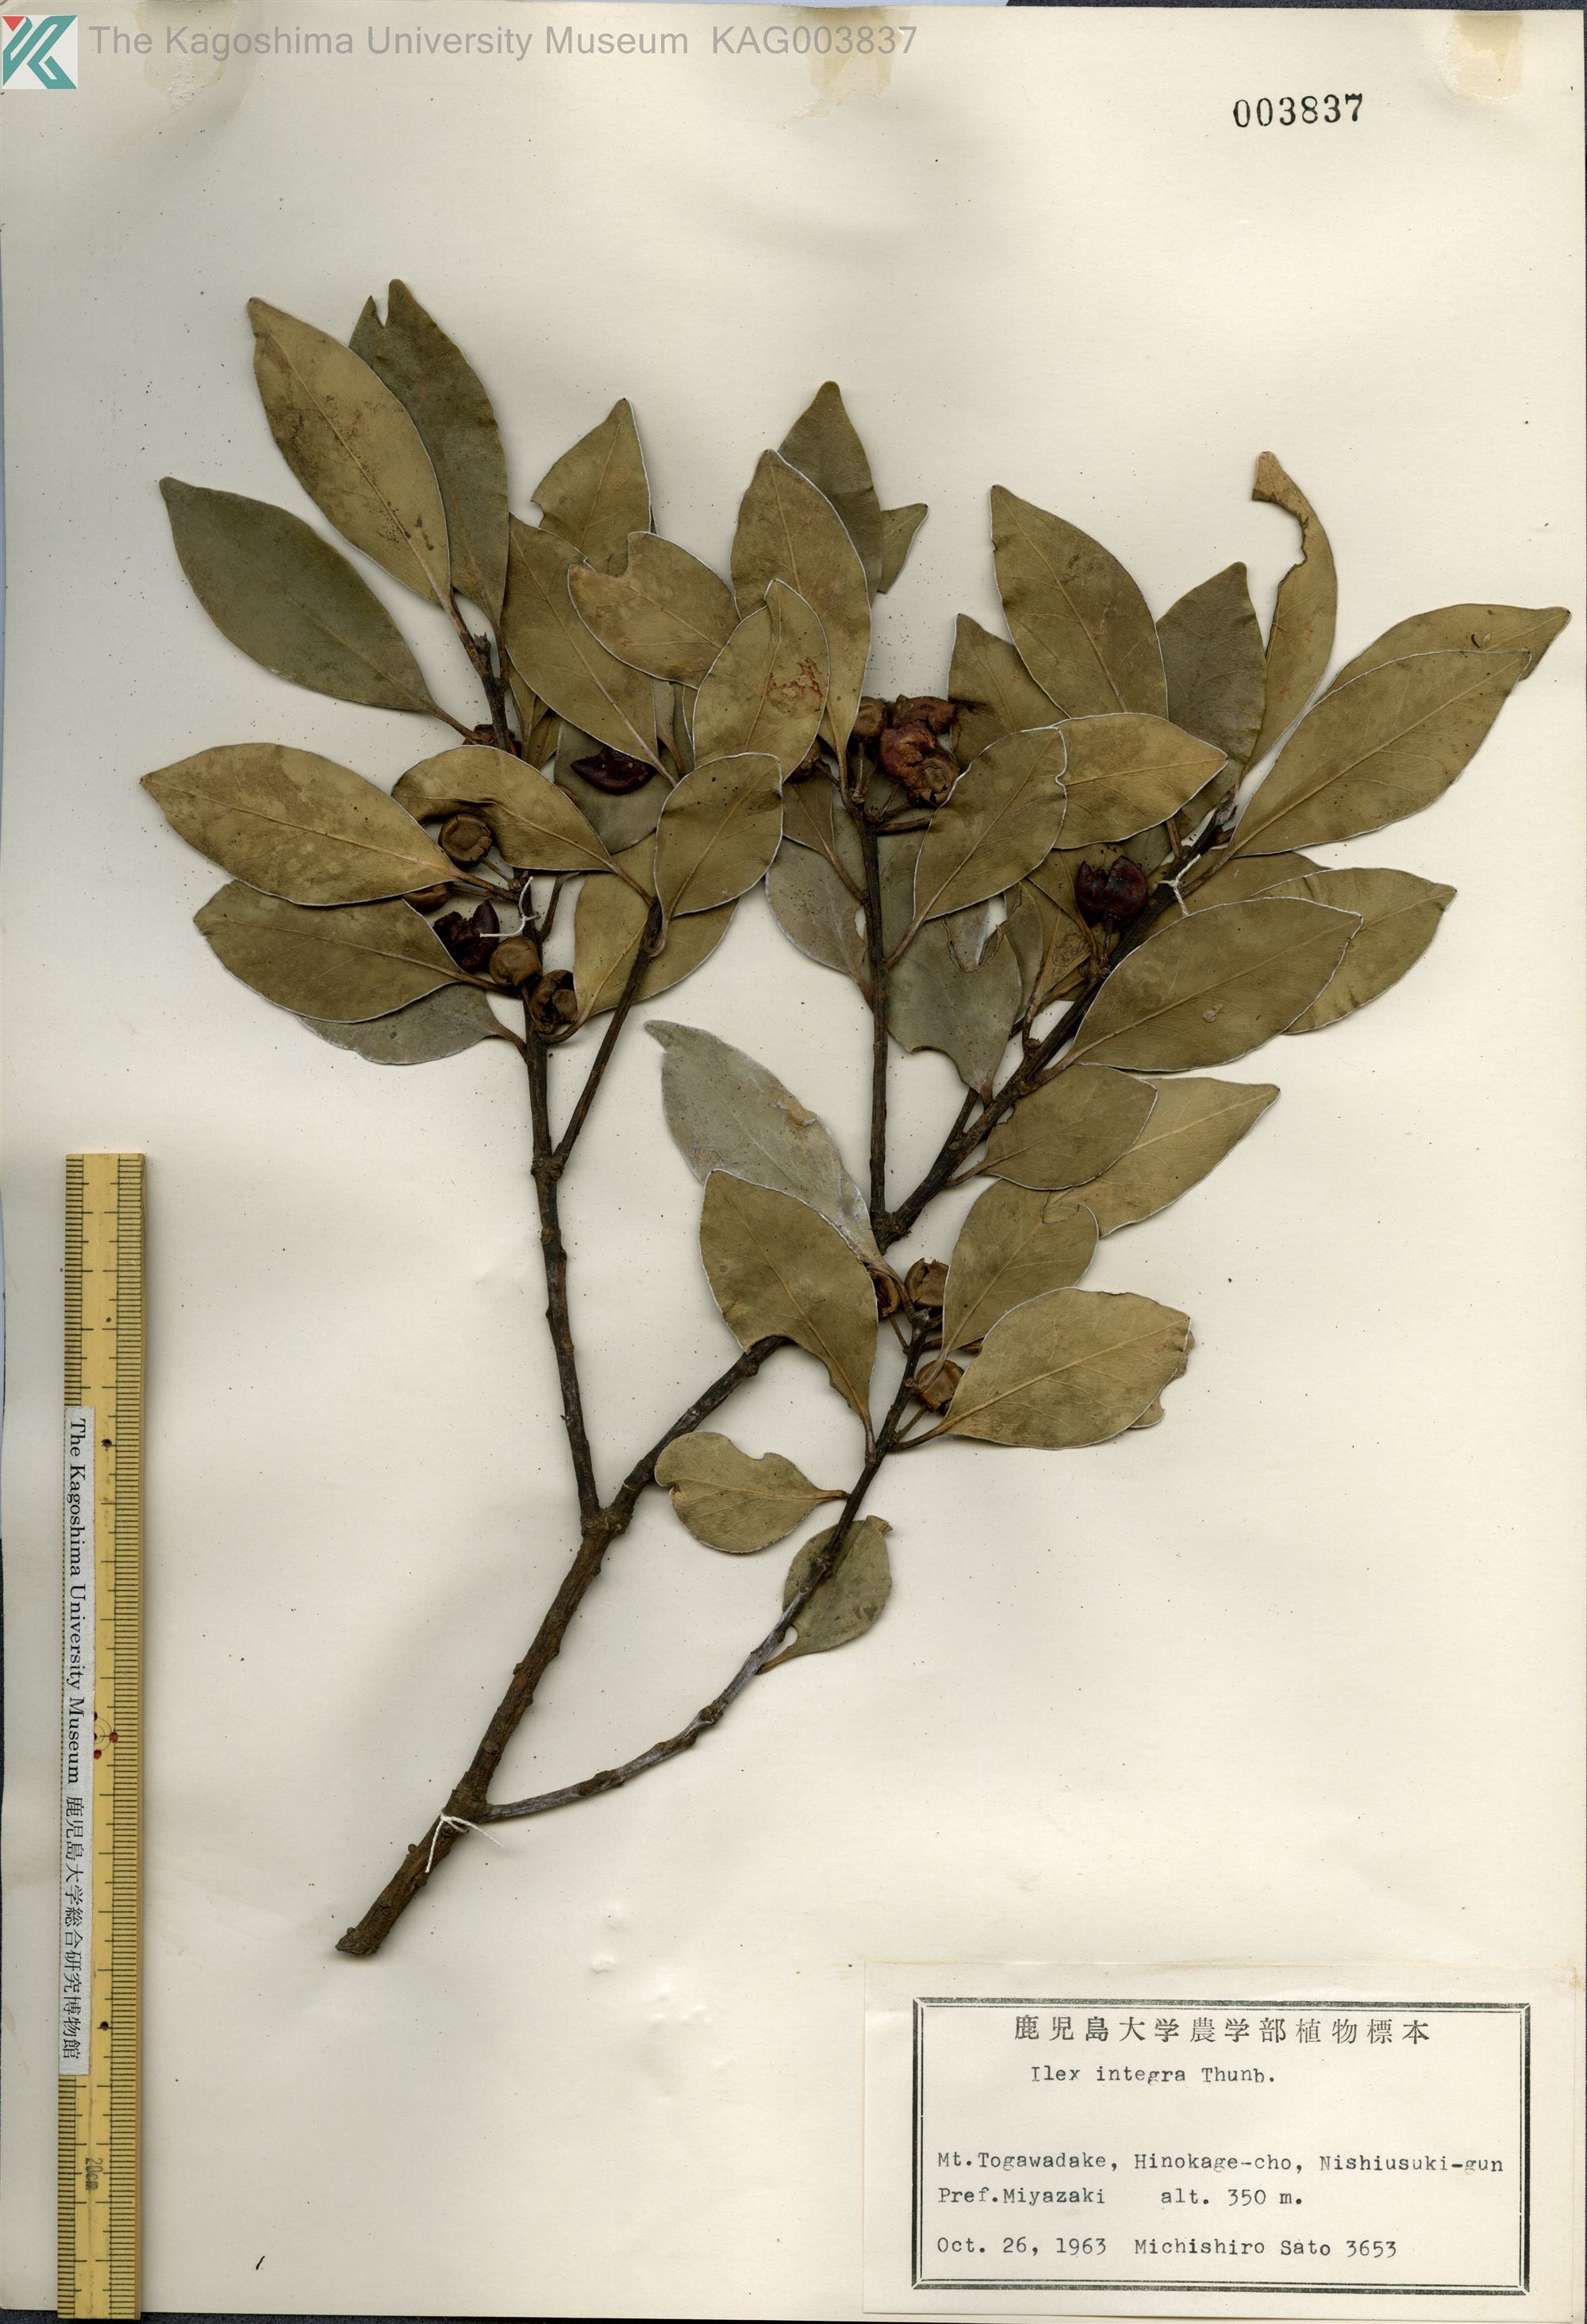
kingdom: Plantae
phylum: Tracheophyta
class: Magnoliopsida
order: Aquifoliales
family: Aquifoliaceae
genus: Ilex
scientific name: Ilex integra
